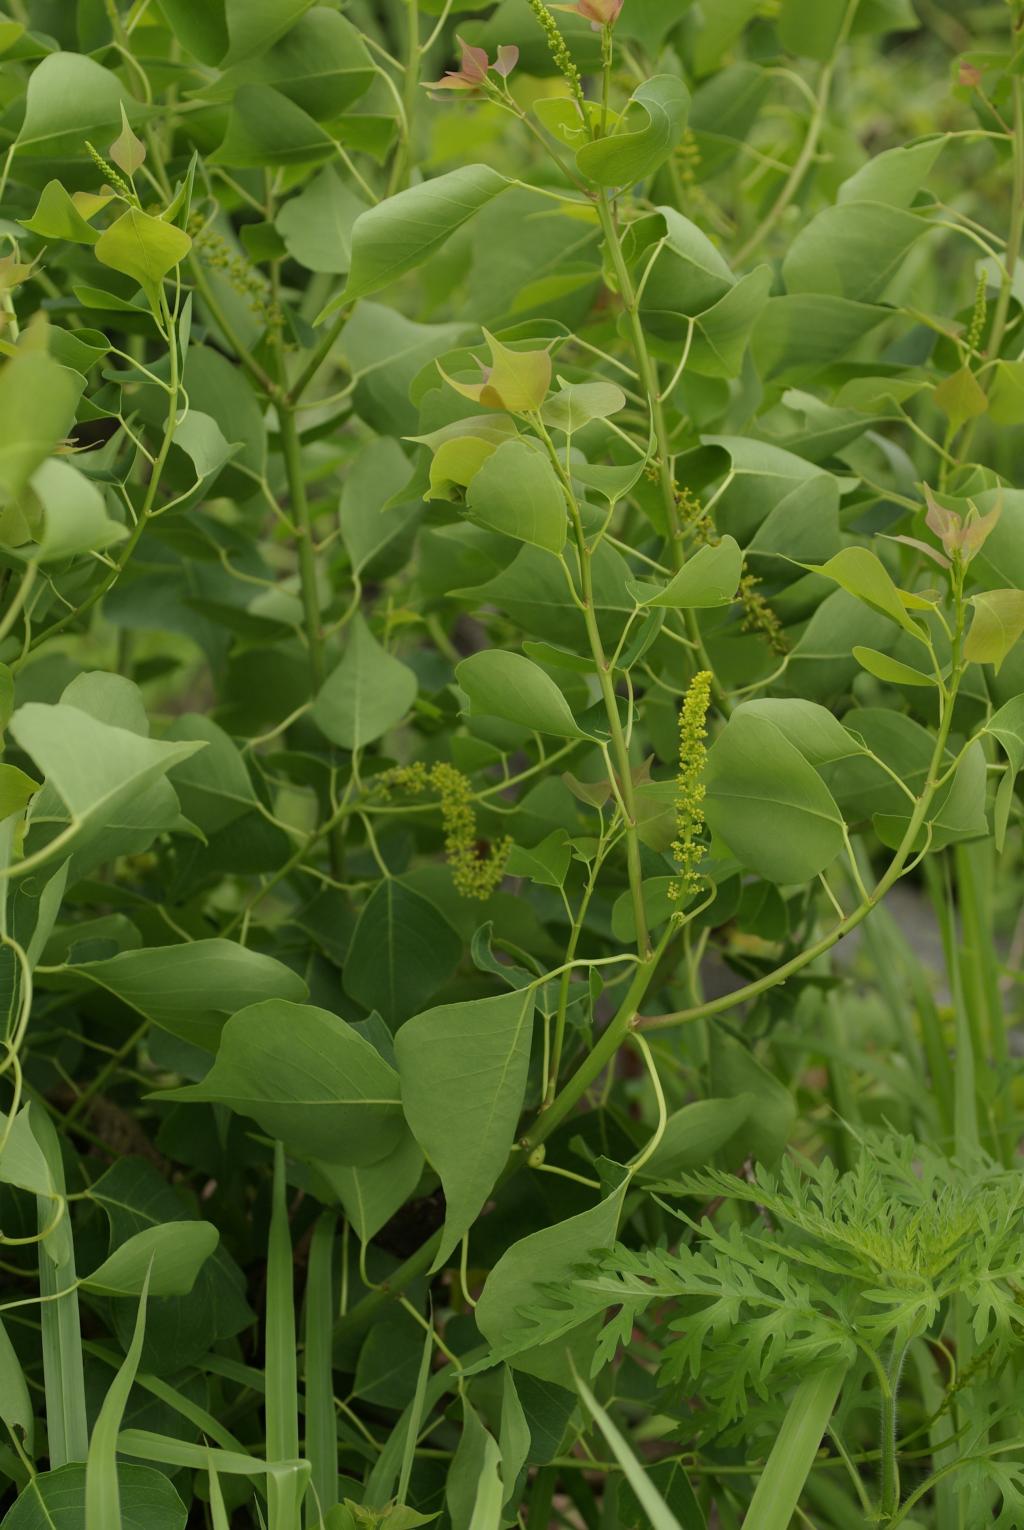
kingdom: Plantae
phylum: Tracheophyta
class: Magnoliopsida
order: Malpighiales
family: Euphorbiaceae
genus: Triadica
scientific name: Triadica sebifera
